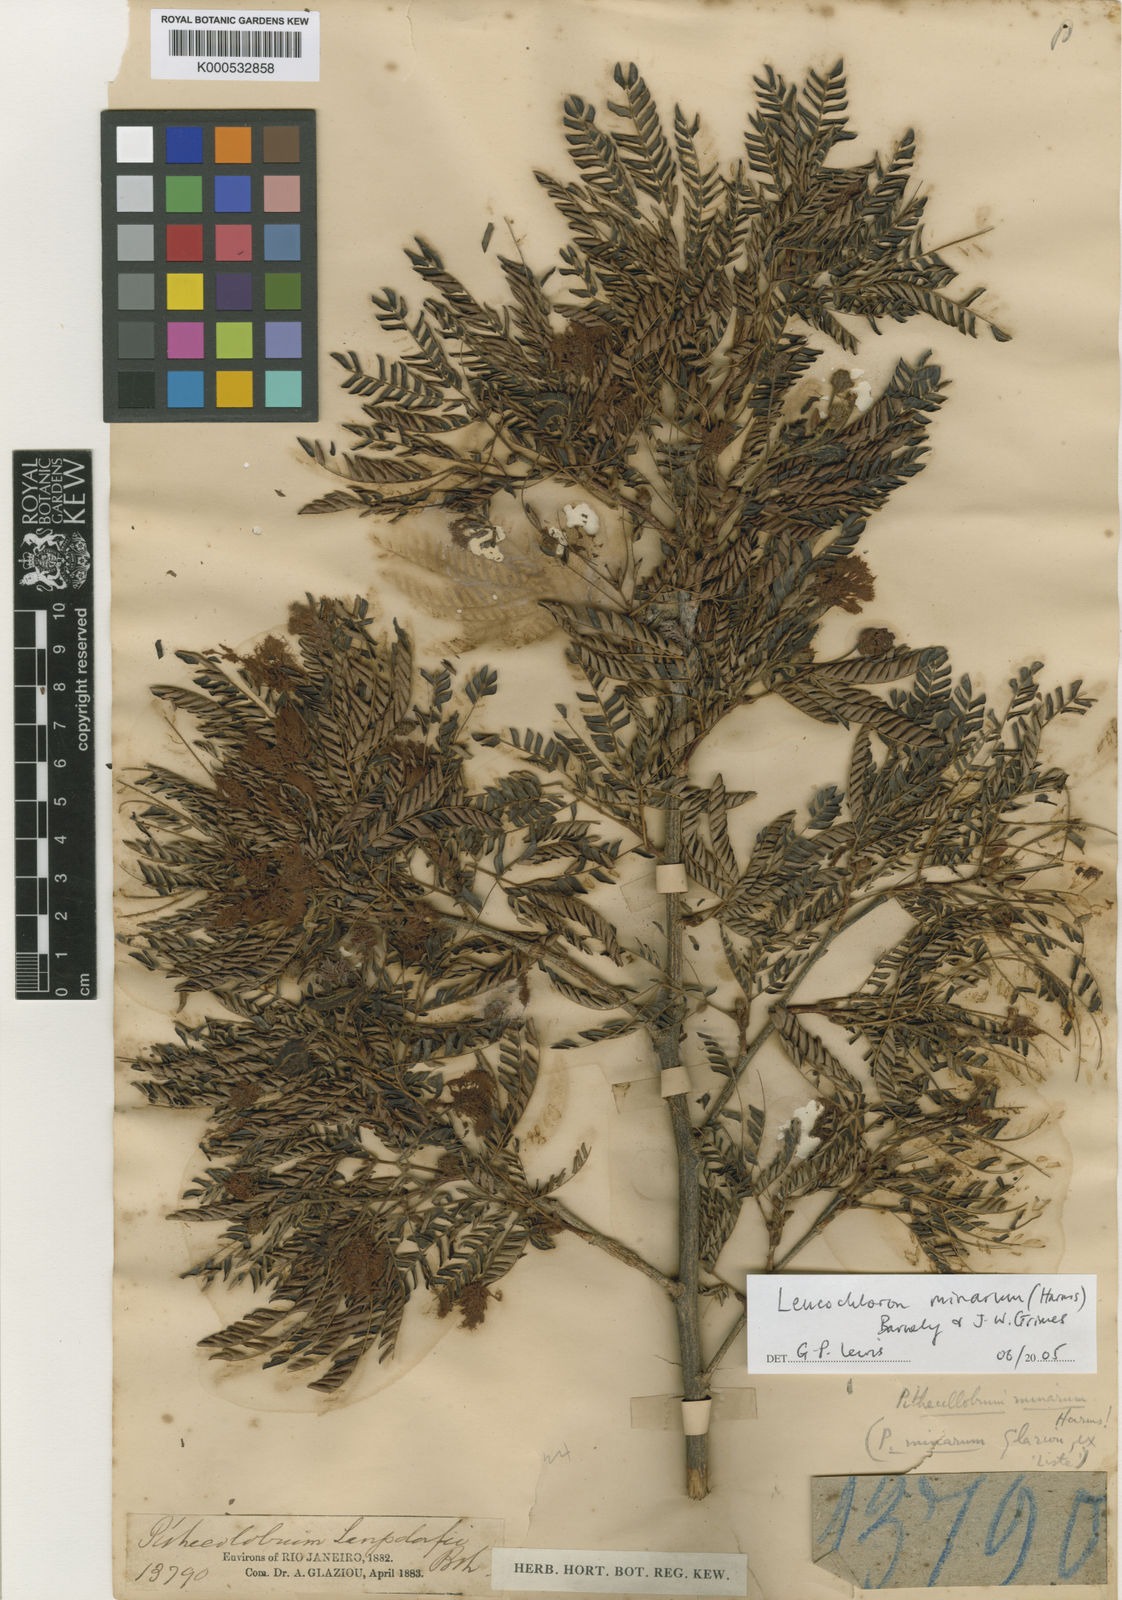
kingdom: Plantae
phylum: Tracheophyta
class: Magnoliopsida
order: Fabales
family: Fabaceae
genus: Leucochloron
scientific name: Leucochloron minarum
